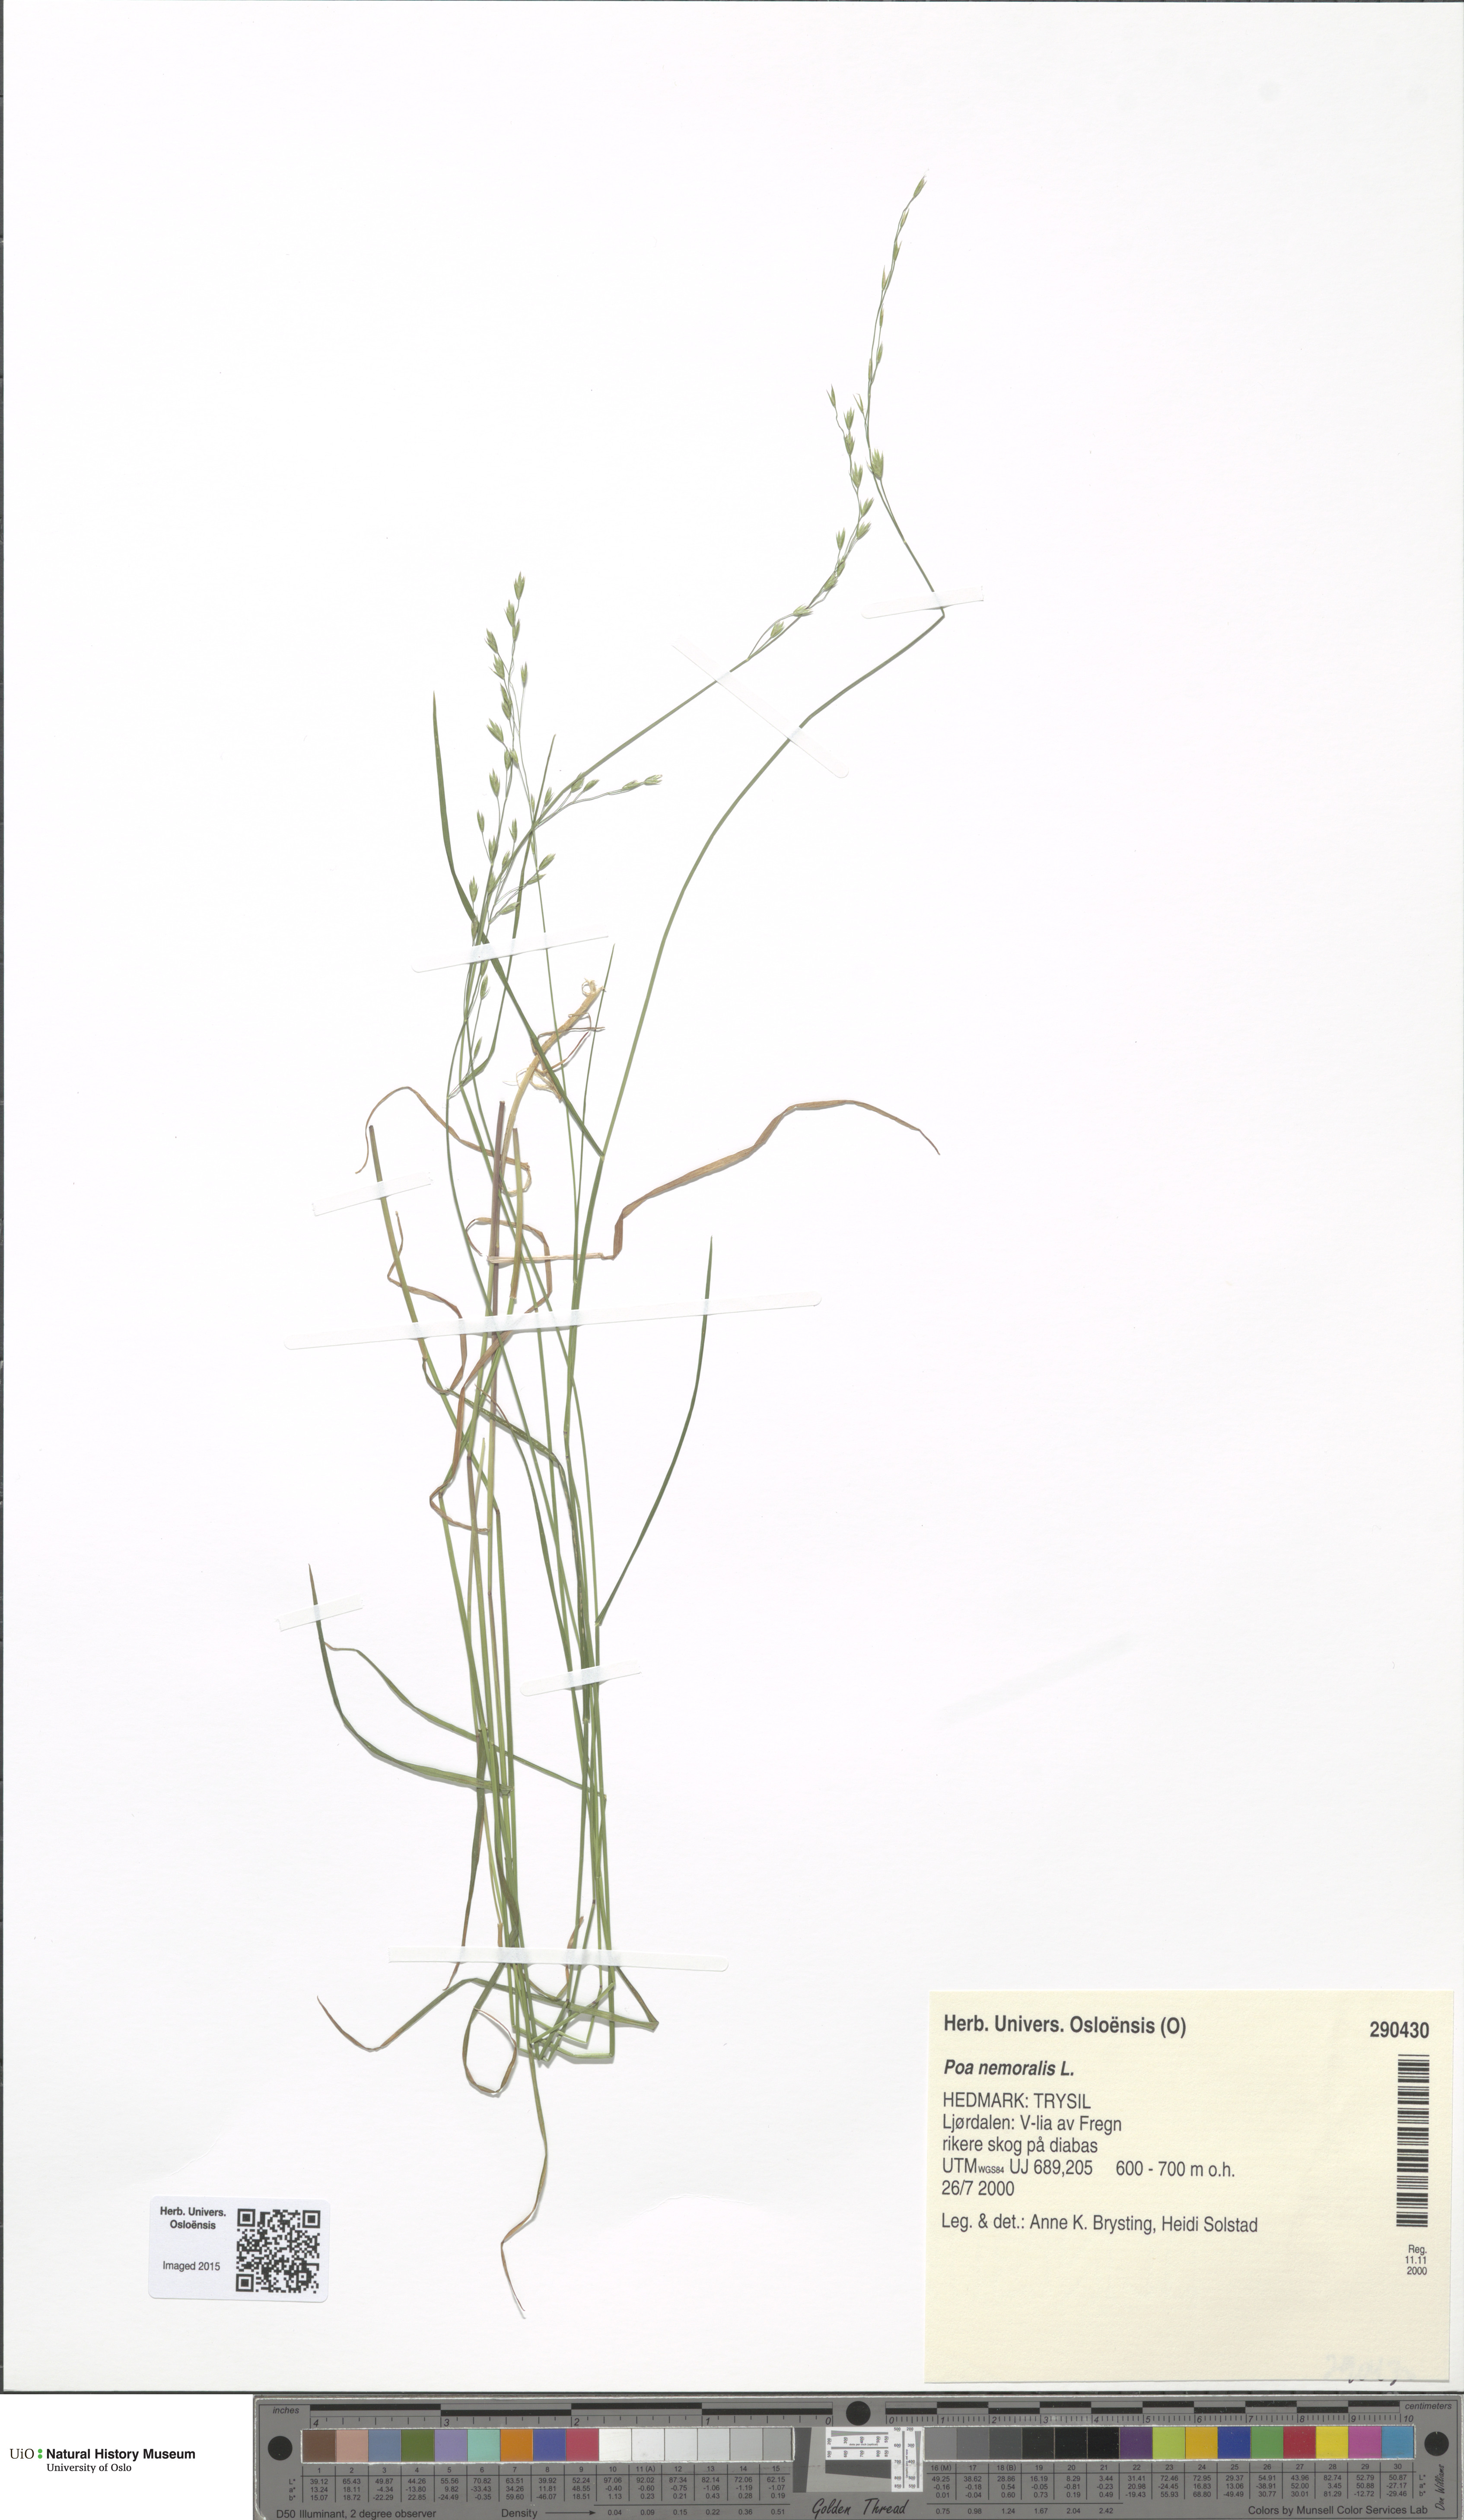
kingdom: Plantae
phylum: Tracheophyta
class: Liliopsida
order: Poales
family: Poaceae
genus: Poa
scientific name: Poa nemoralis
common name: Wood bluegrass
